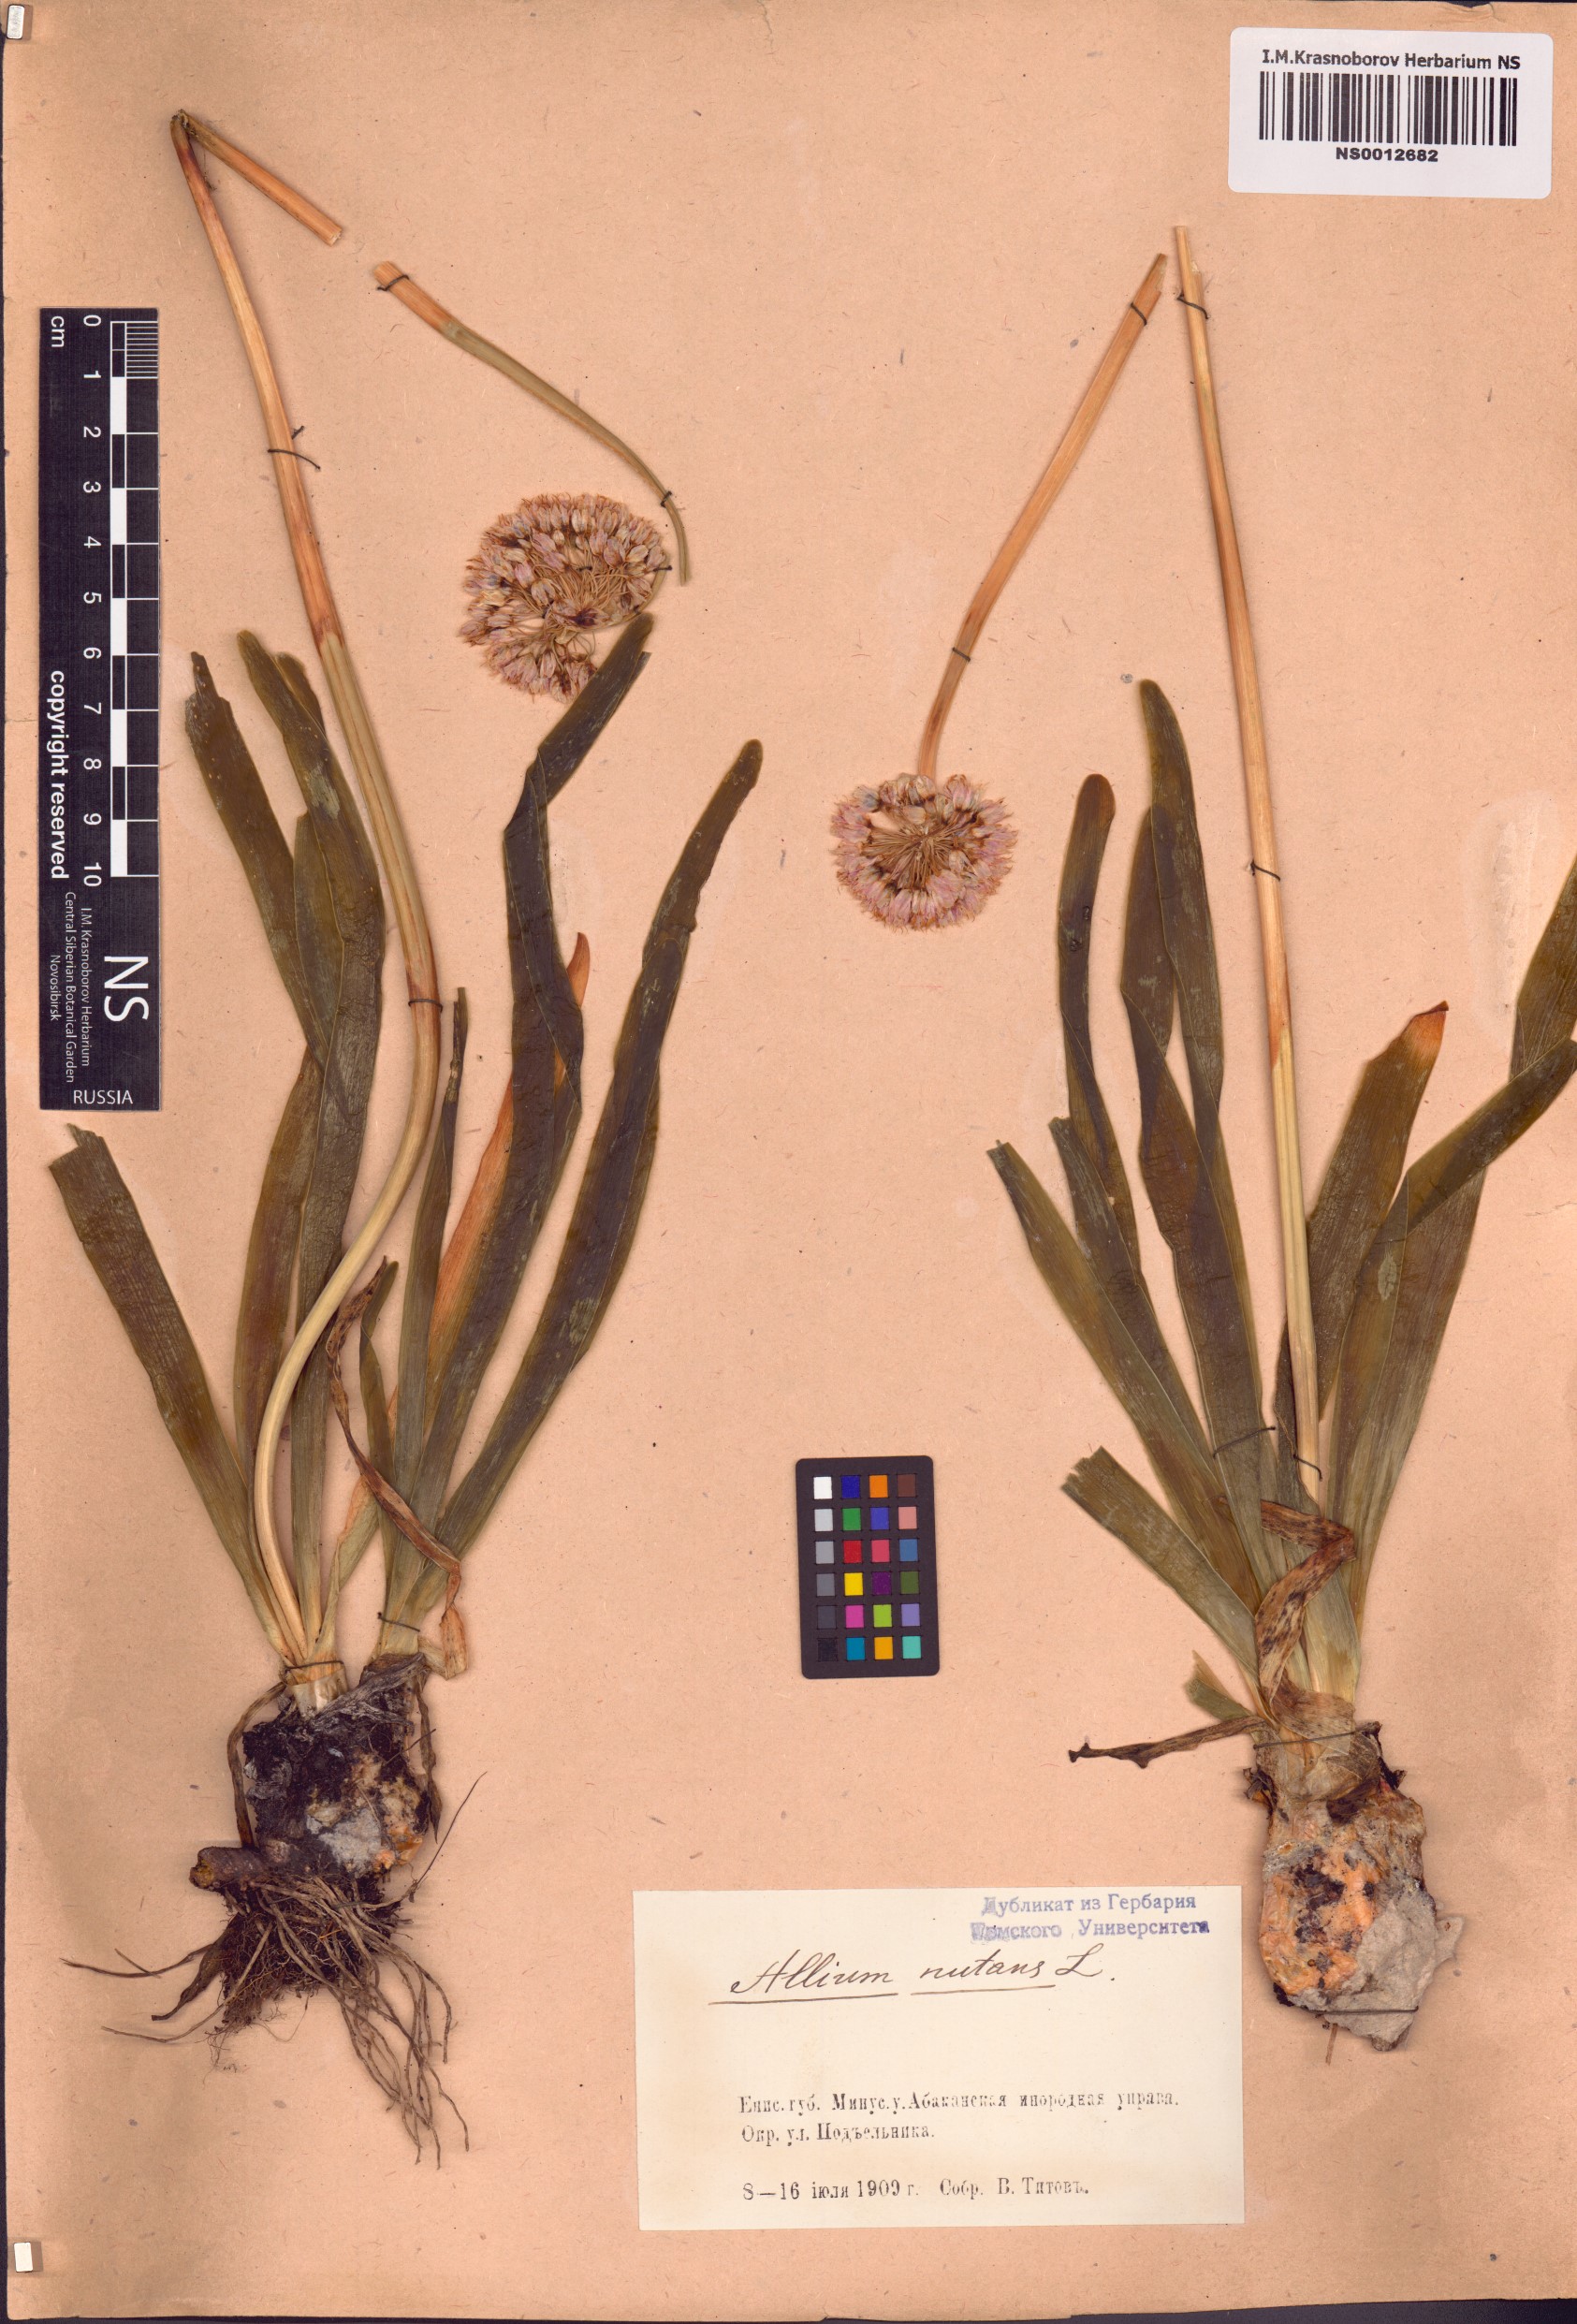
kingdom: Plantae
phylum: Tracheophyta
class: Liliopsida
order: Asparagales
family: Amaryllidaceae
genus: Allium
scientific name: Allium nutans
